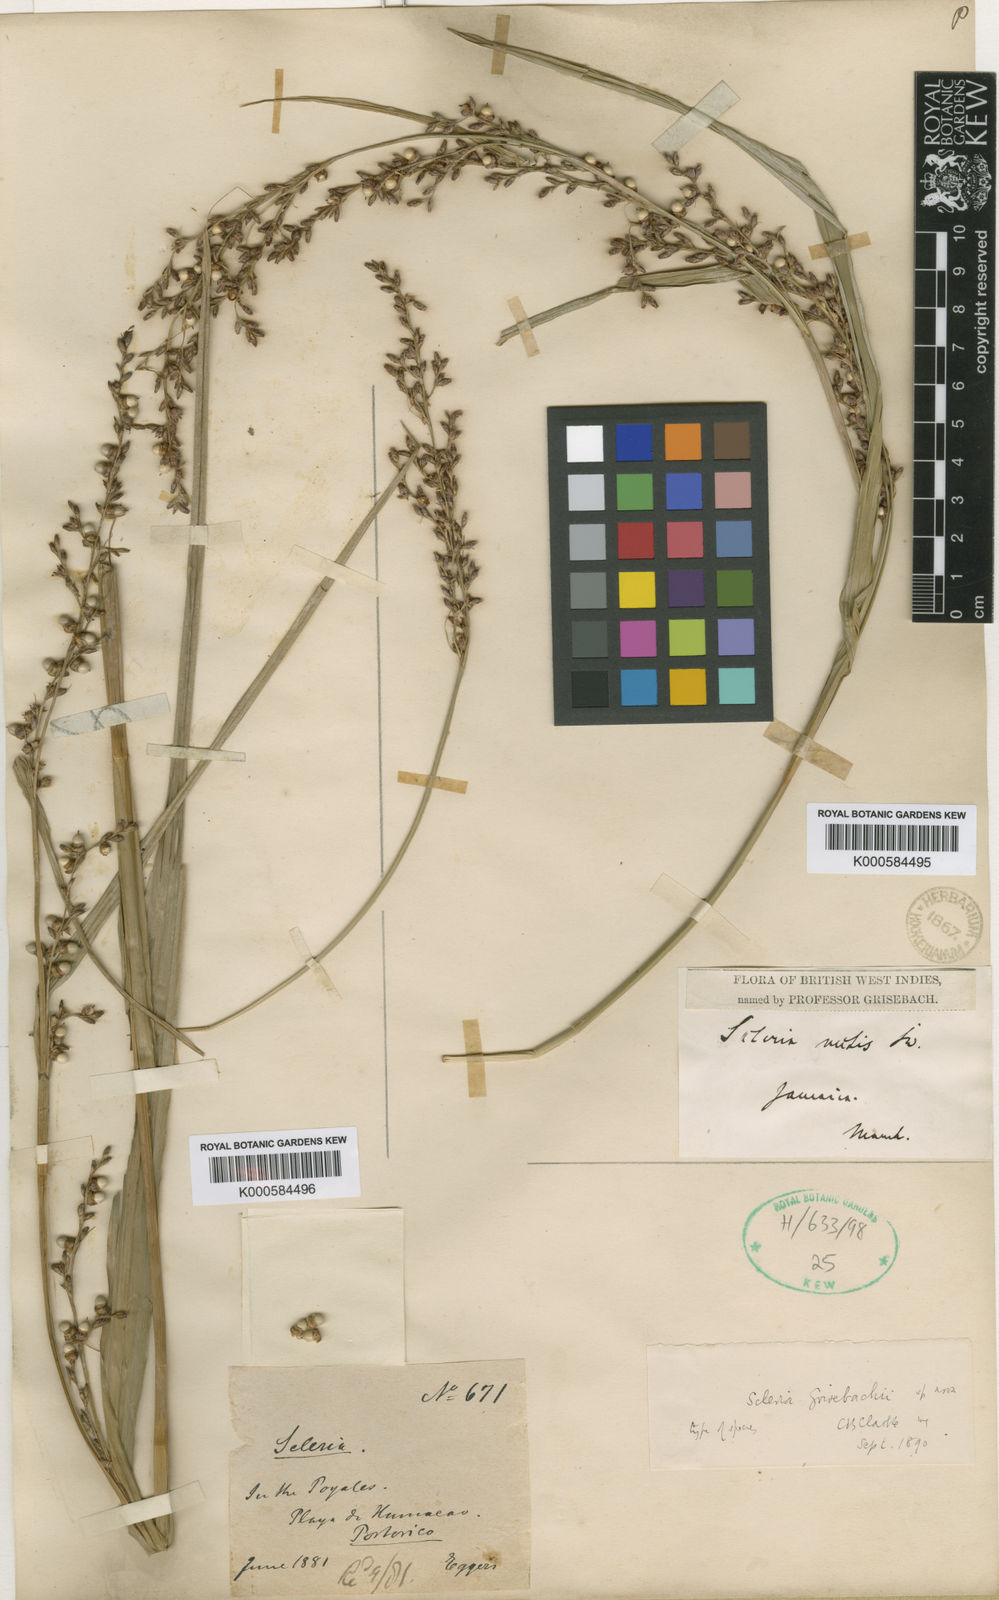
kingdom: Plantae
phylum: Tracheophyta
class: Liliopsida
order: Poales
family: Cyperaceae
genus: Scleria
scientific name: Scleria eggersiana
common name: Eggers' nutrush
